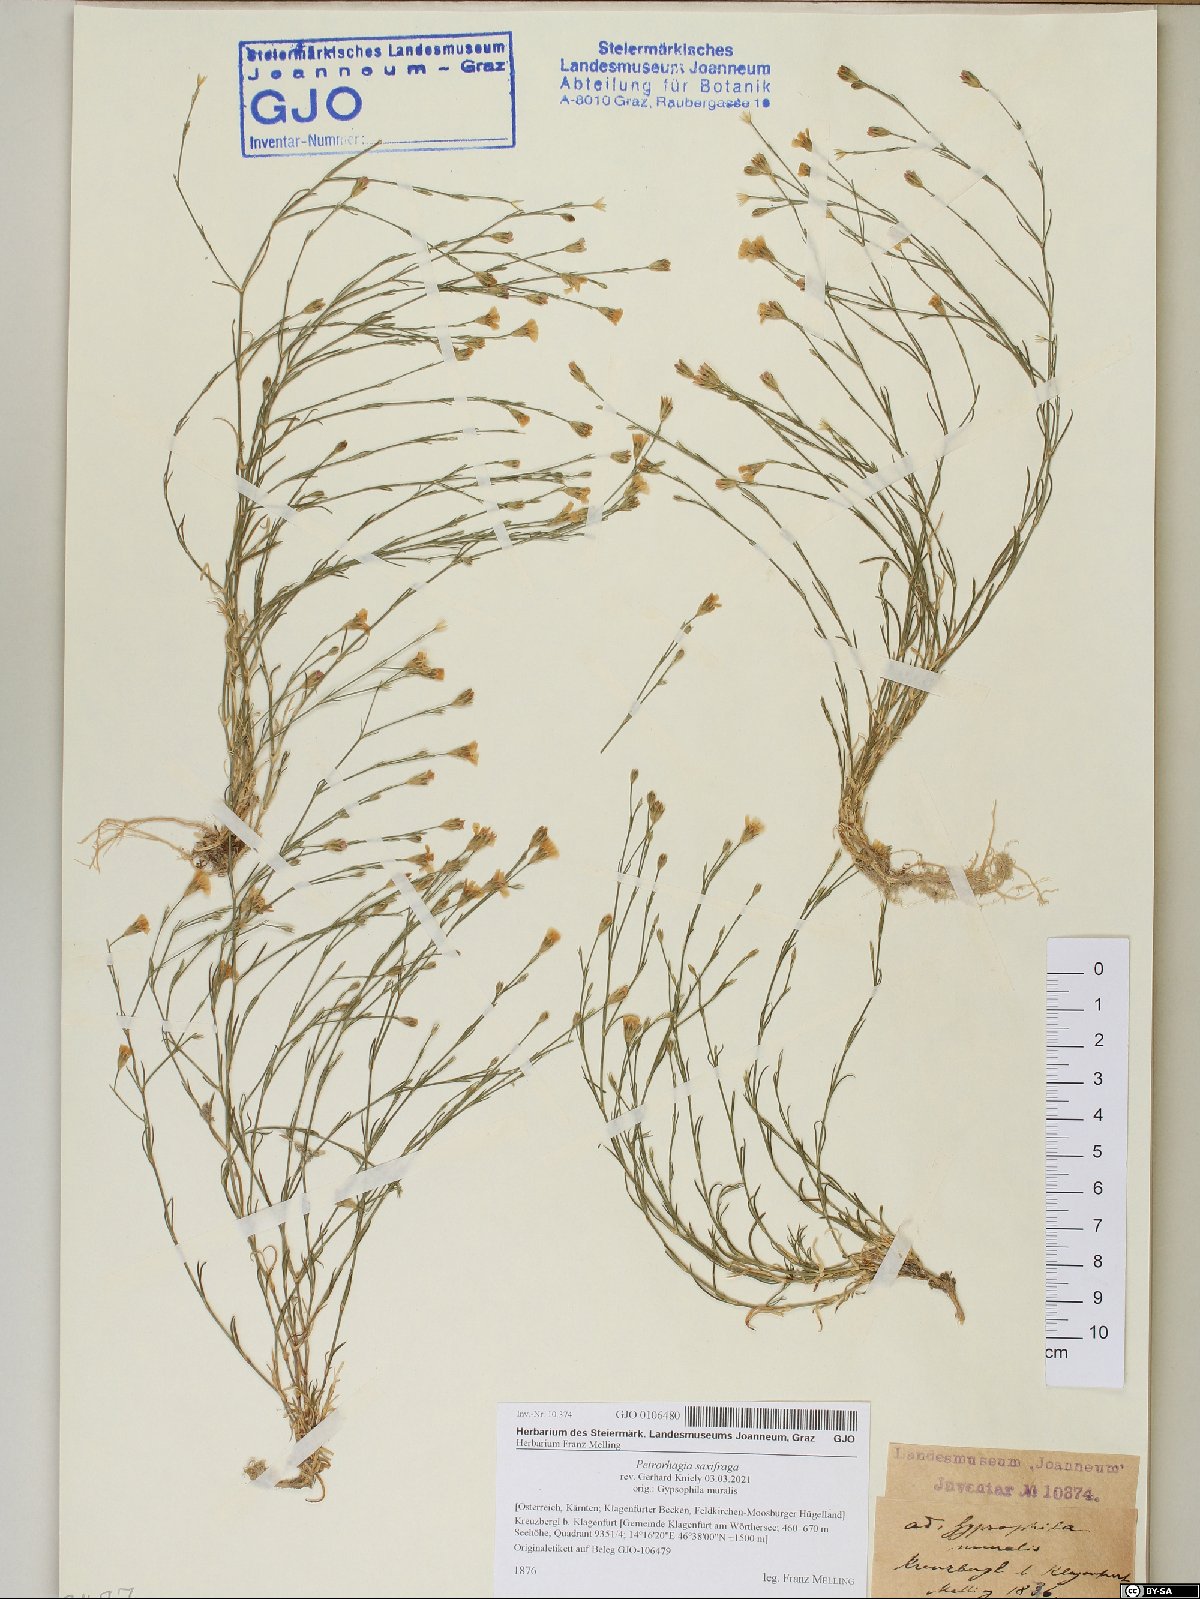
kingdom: Plantae
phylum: Tracheophyta
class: Magnoliopsida
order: Caryophyllales
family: Caryophyllaceae
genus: Petrorhagia
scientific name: Petrorhagia saxifraga
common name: Tunicflower
